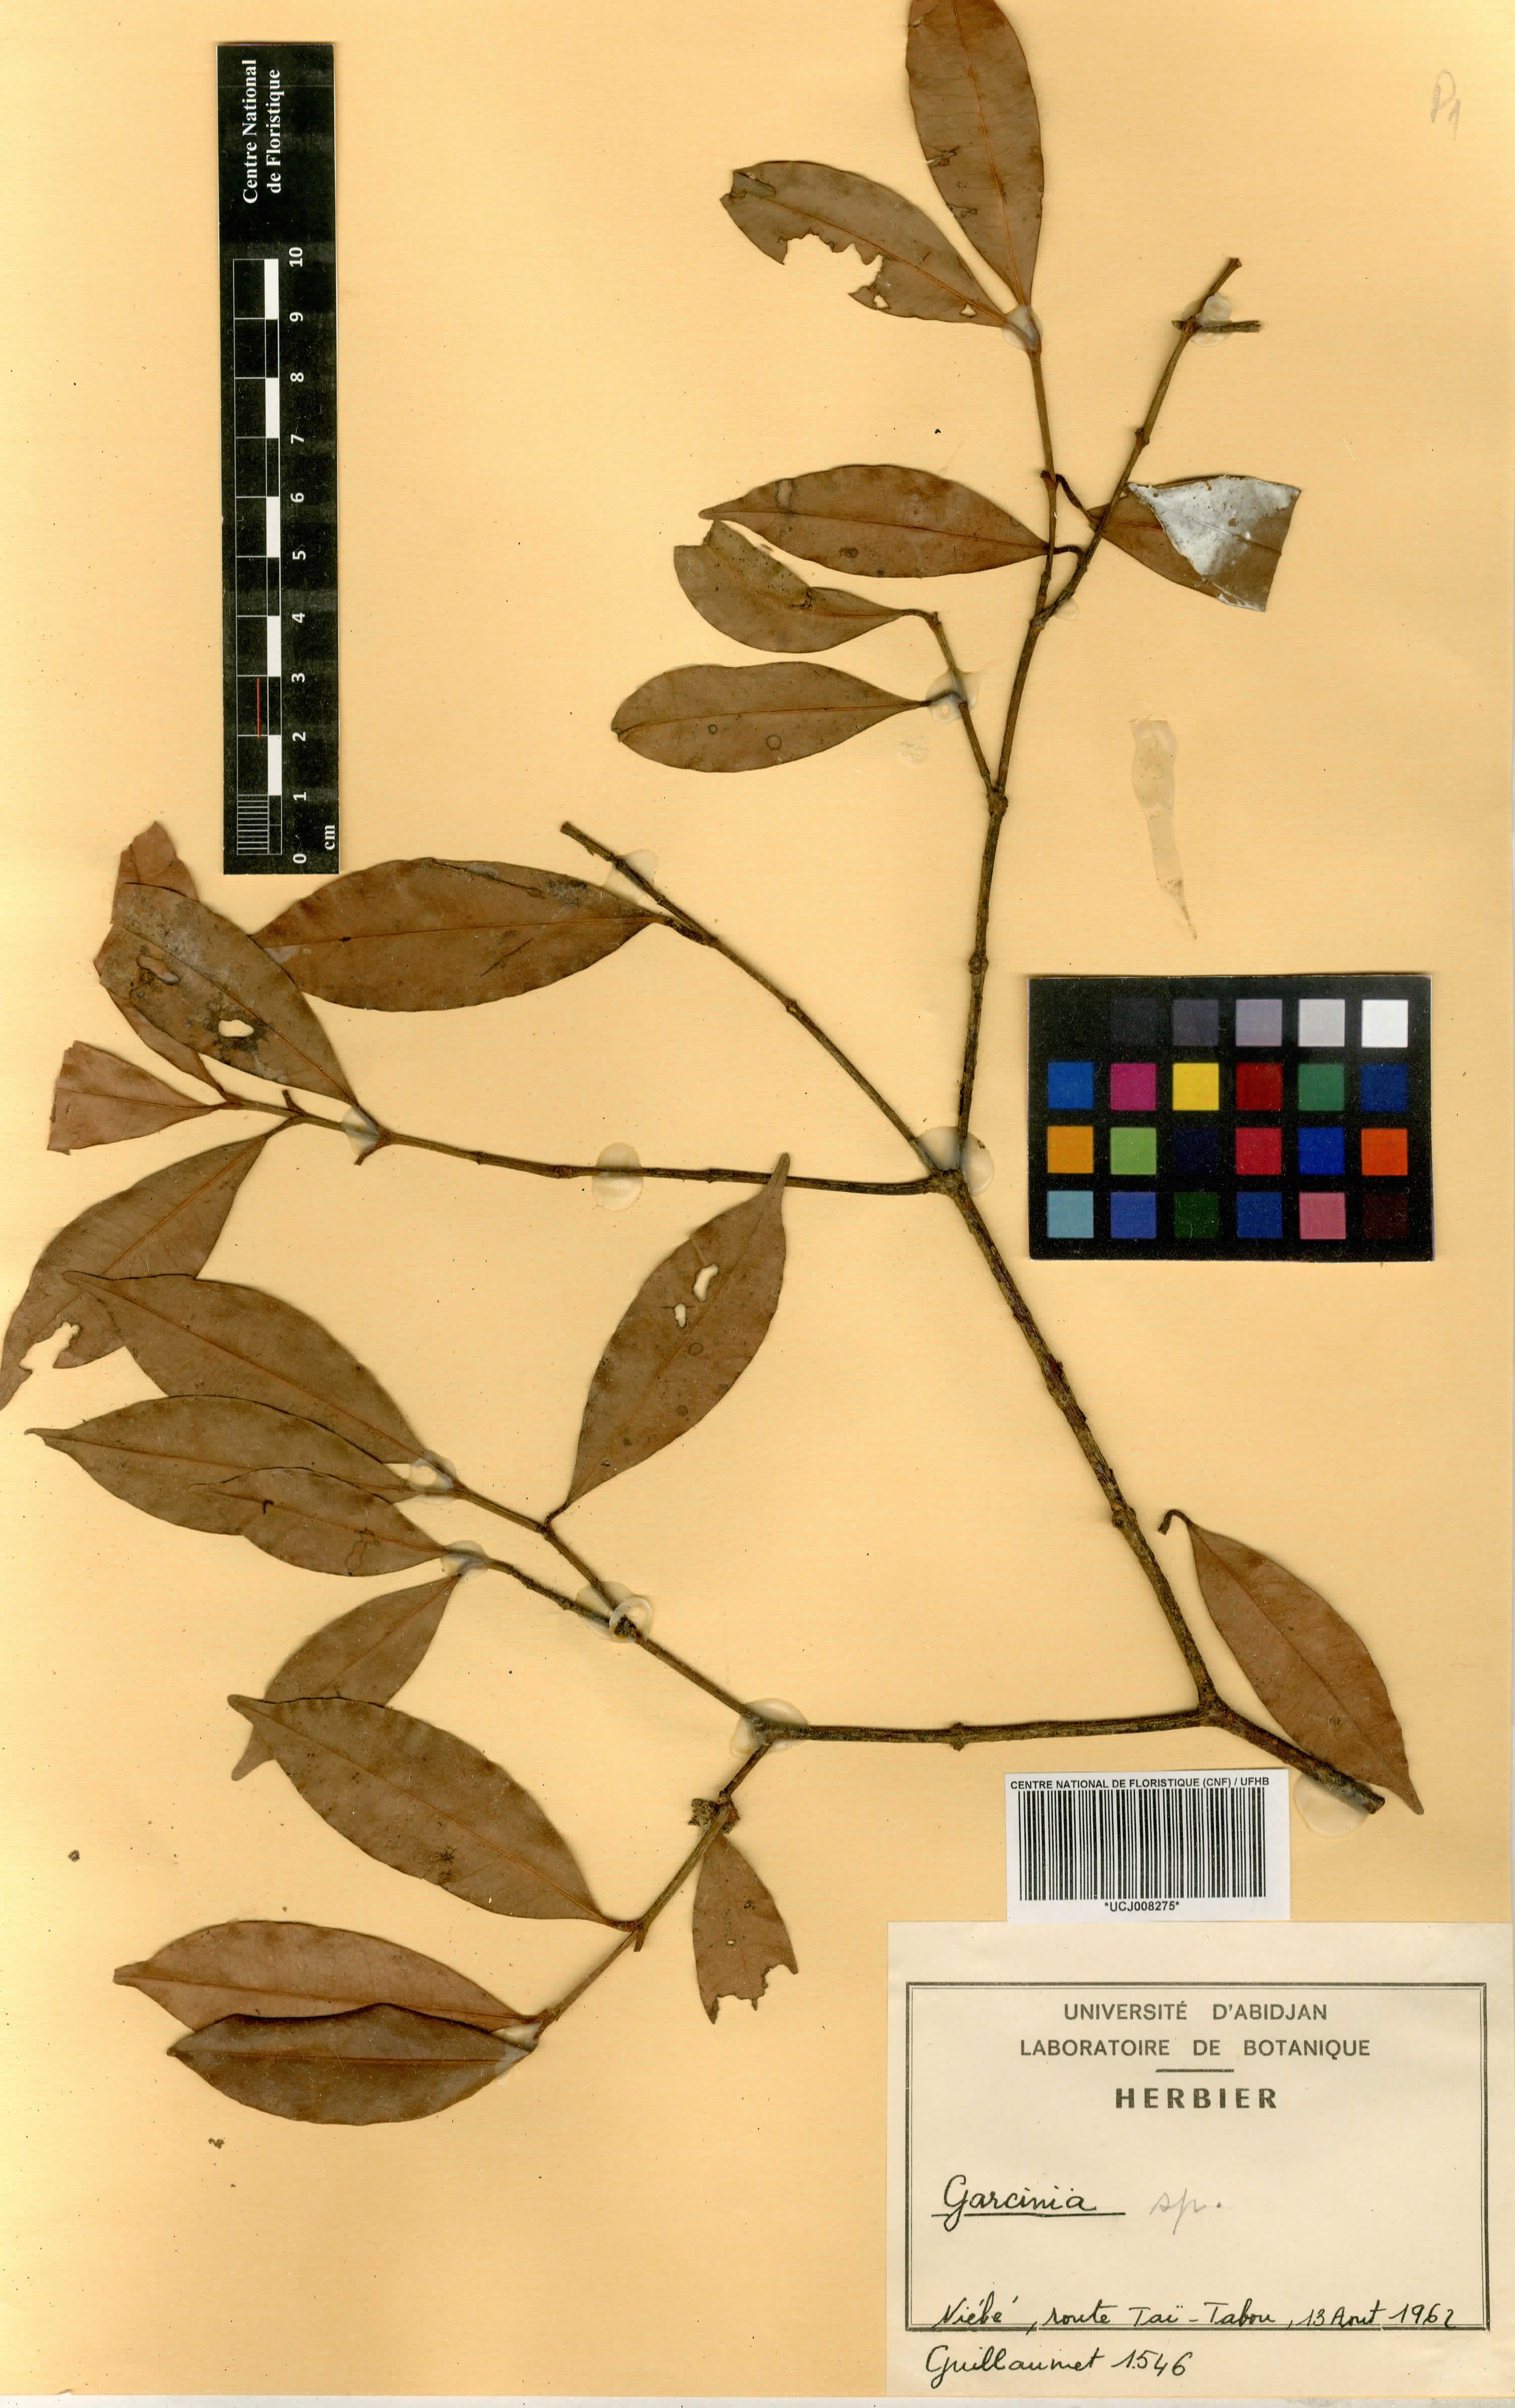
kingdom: Plantae
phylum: Tracheophyta
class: Magnoliopsida
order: Malpighiales
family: Calophyllaceae
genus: Mammea
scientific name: Mammea africana
